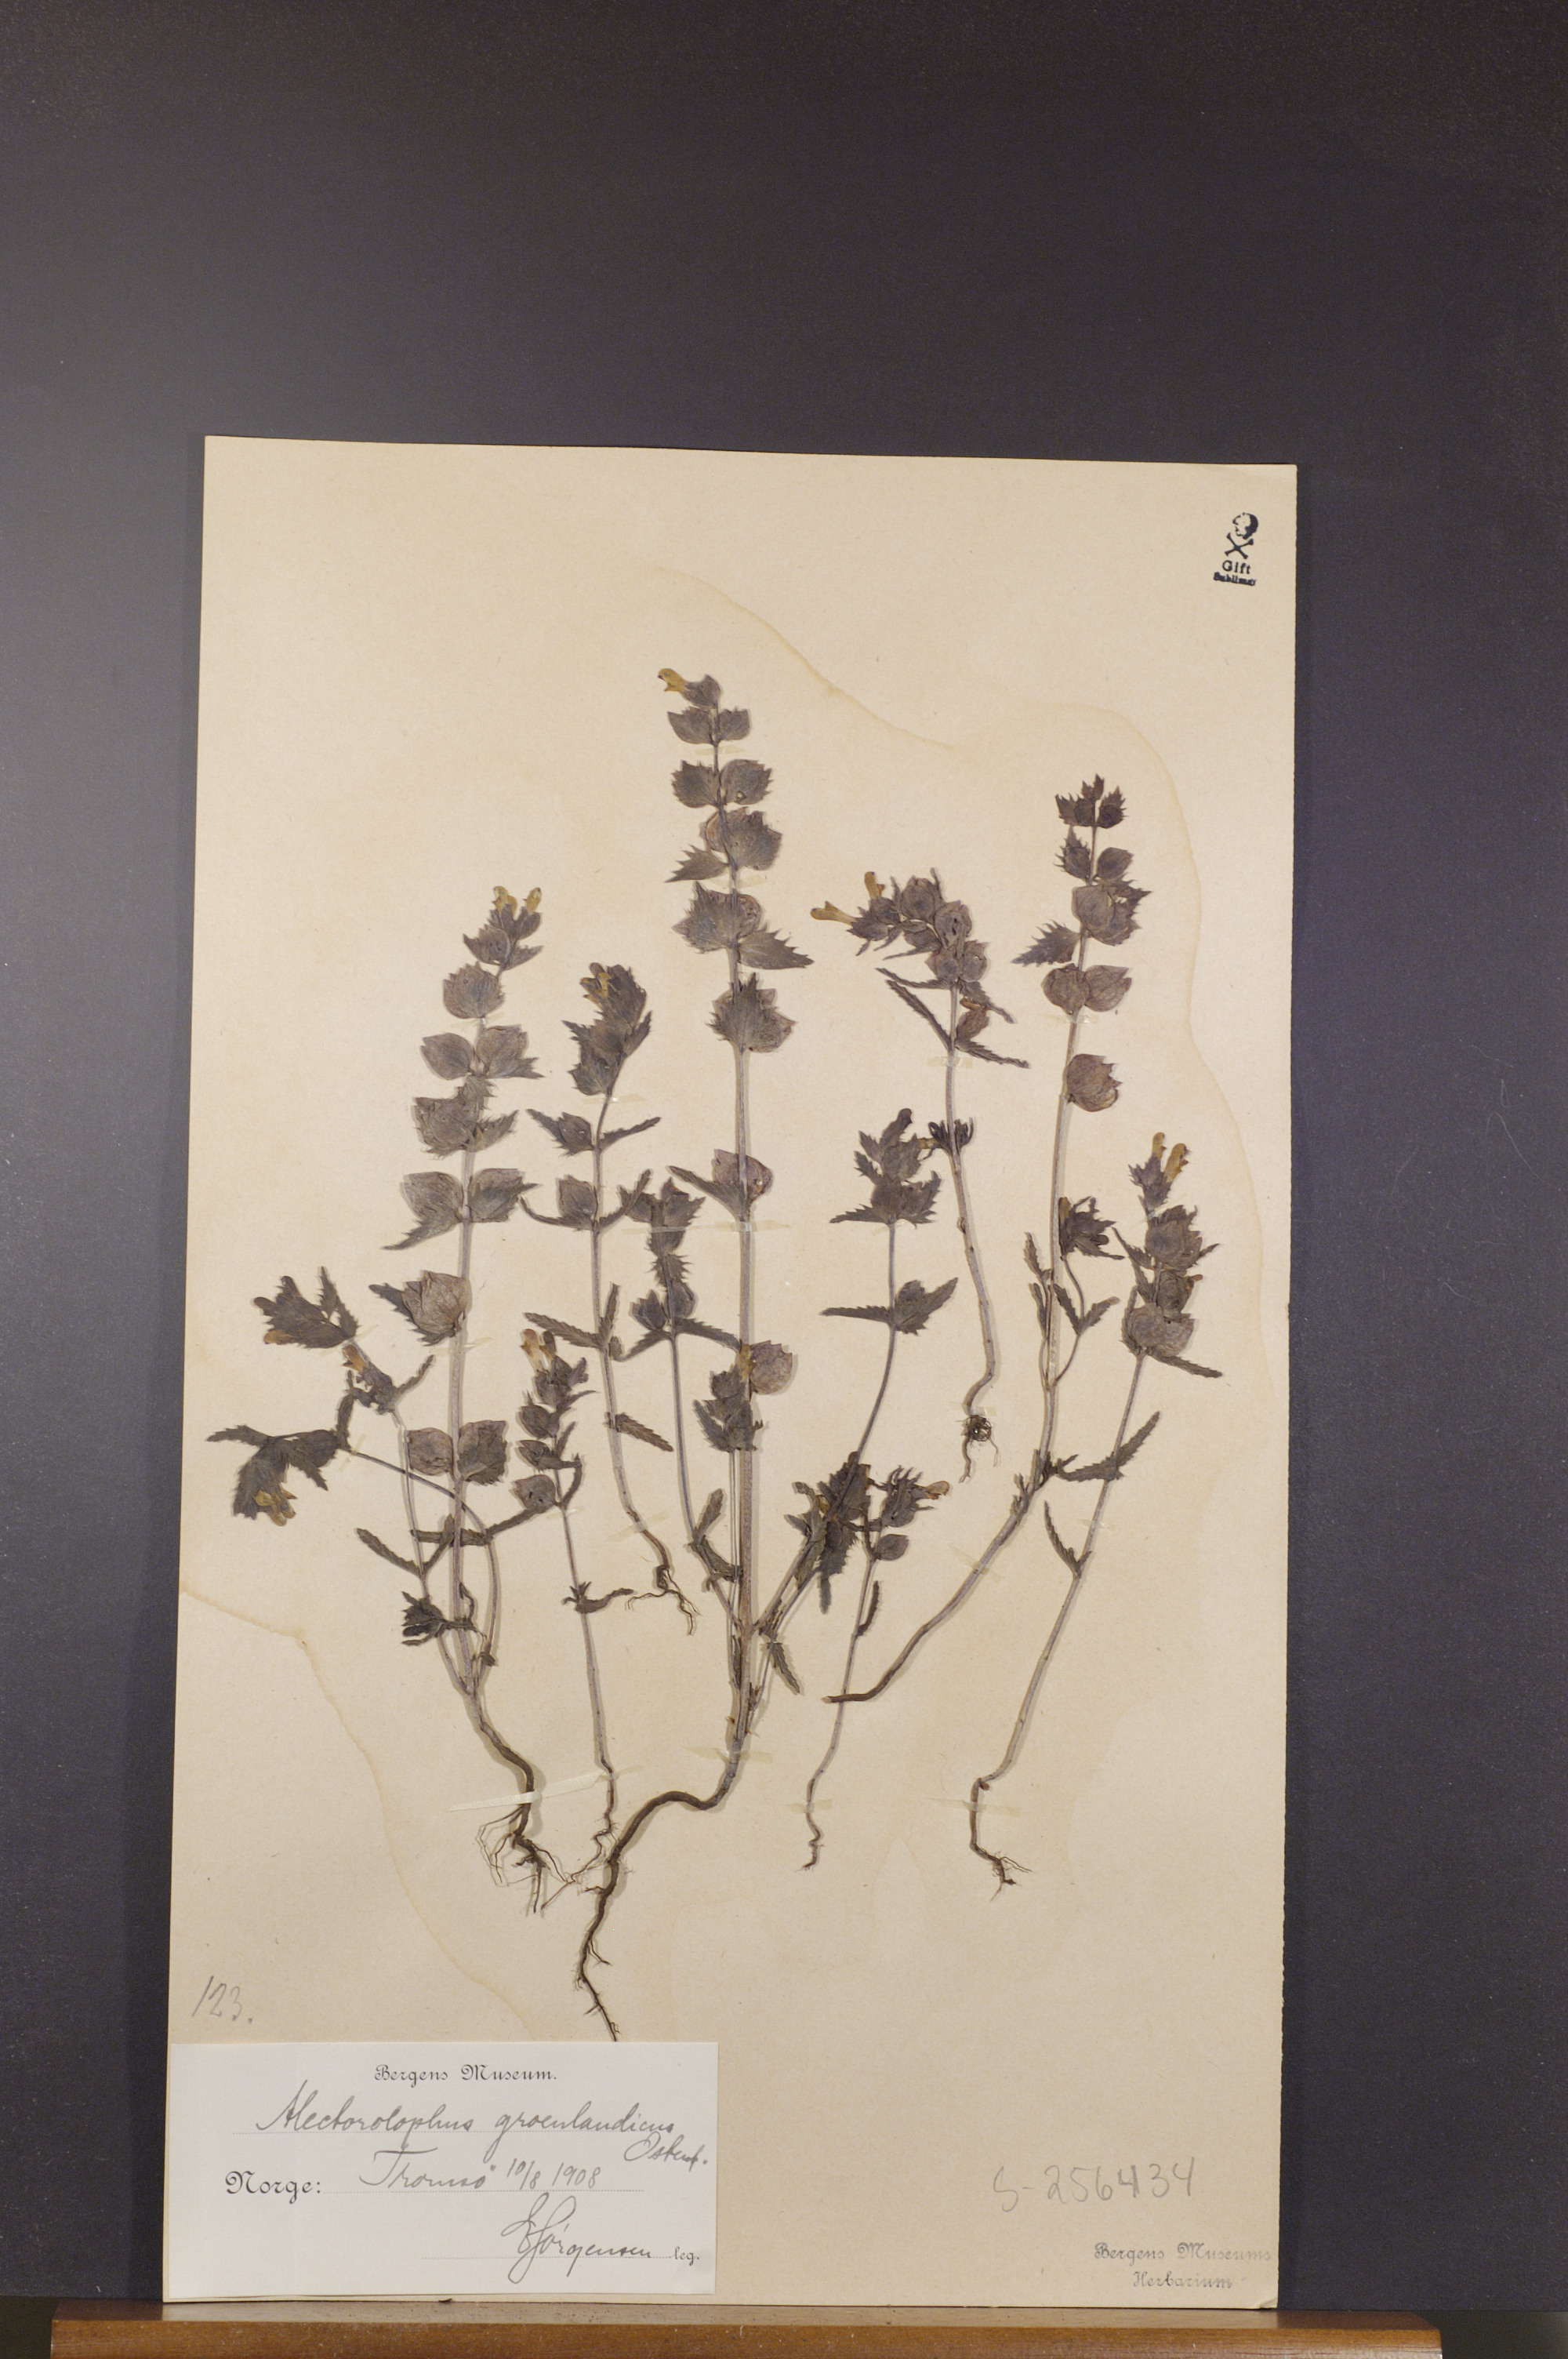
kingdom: Plantae
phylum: Tracheophyta
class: Magnoliopsida
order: Lamiales
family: Orobanchaceae
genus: Rhinanthus
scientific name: Rhinanthus groenlandicus
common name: Little yellow rattle
